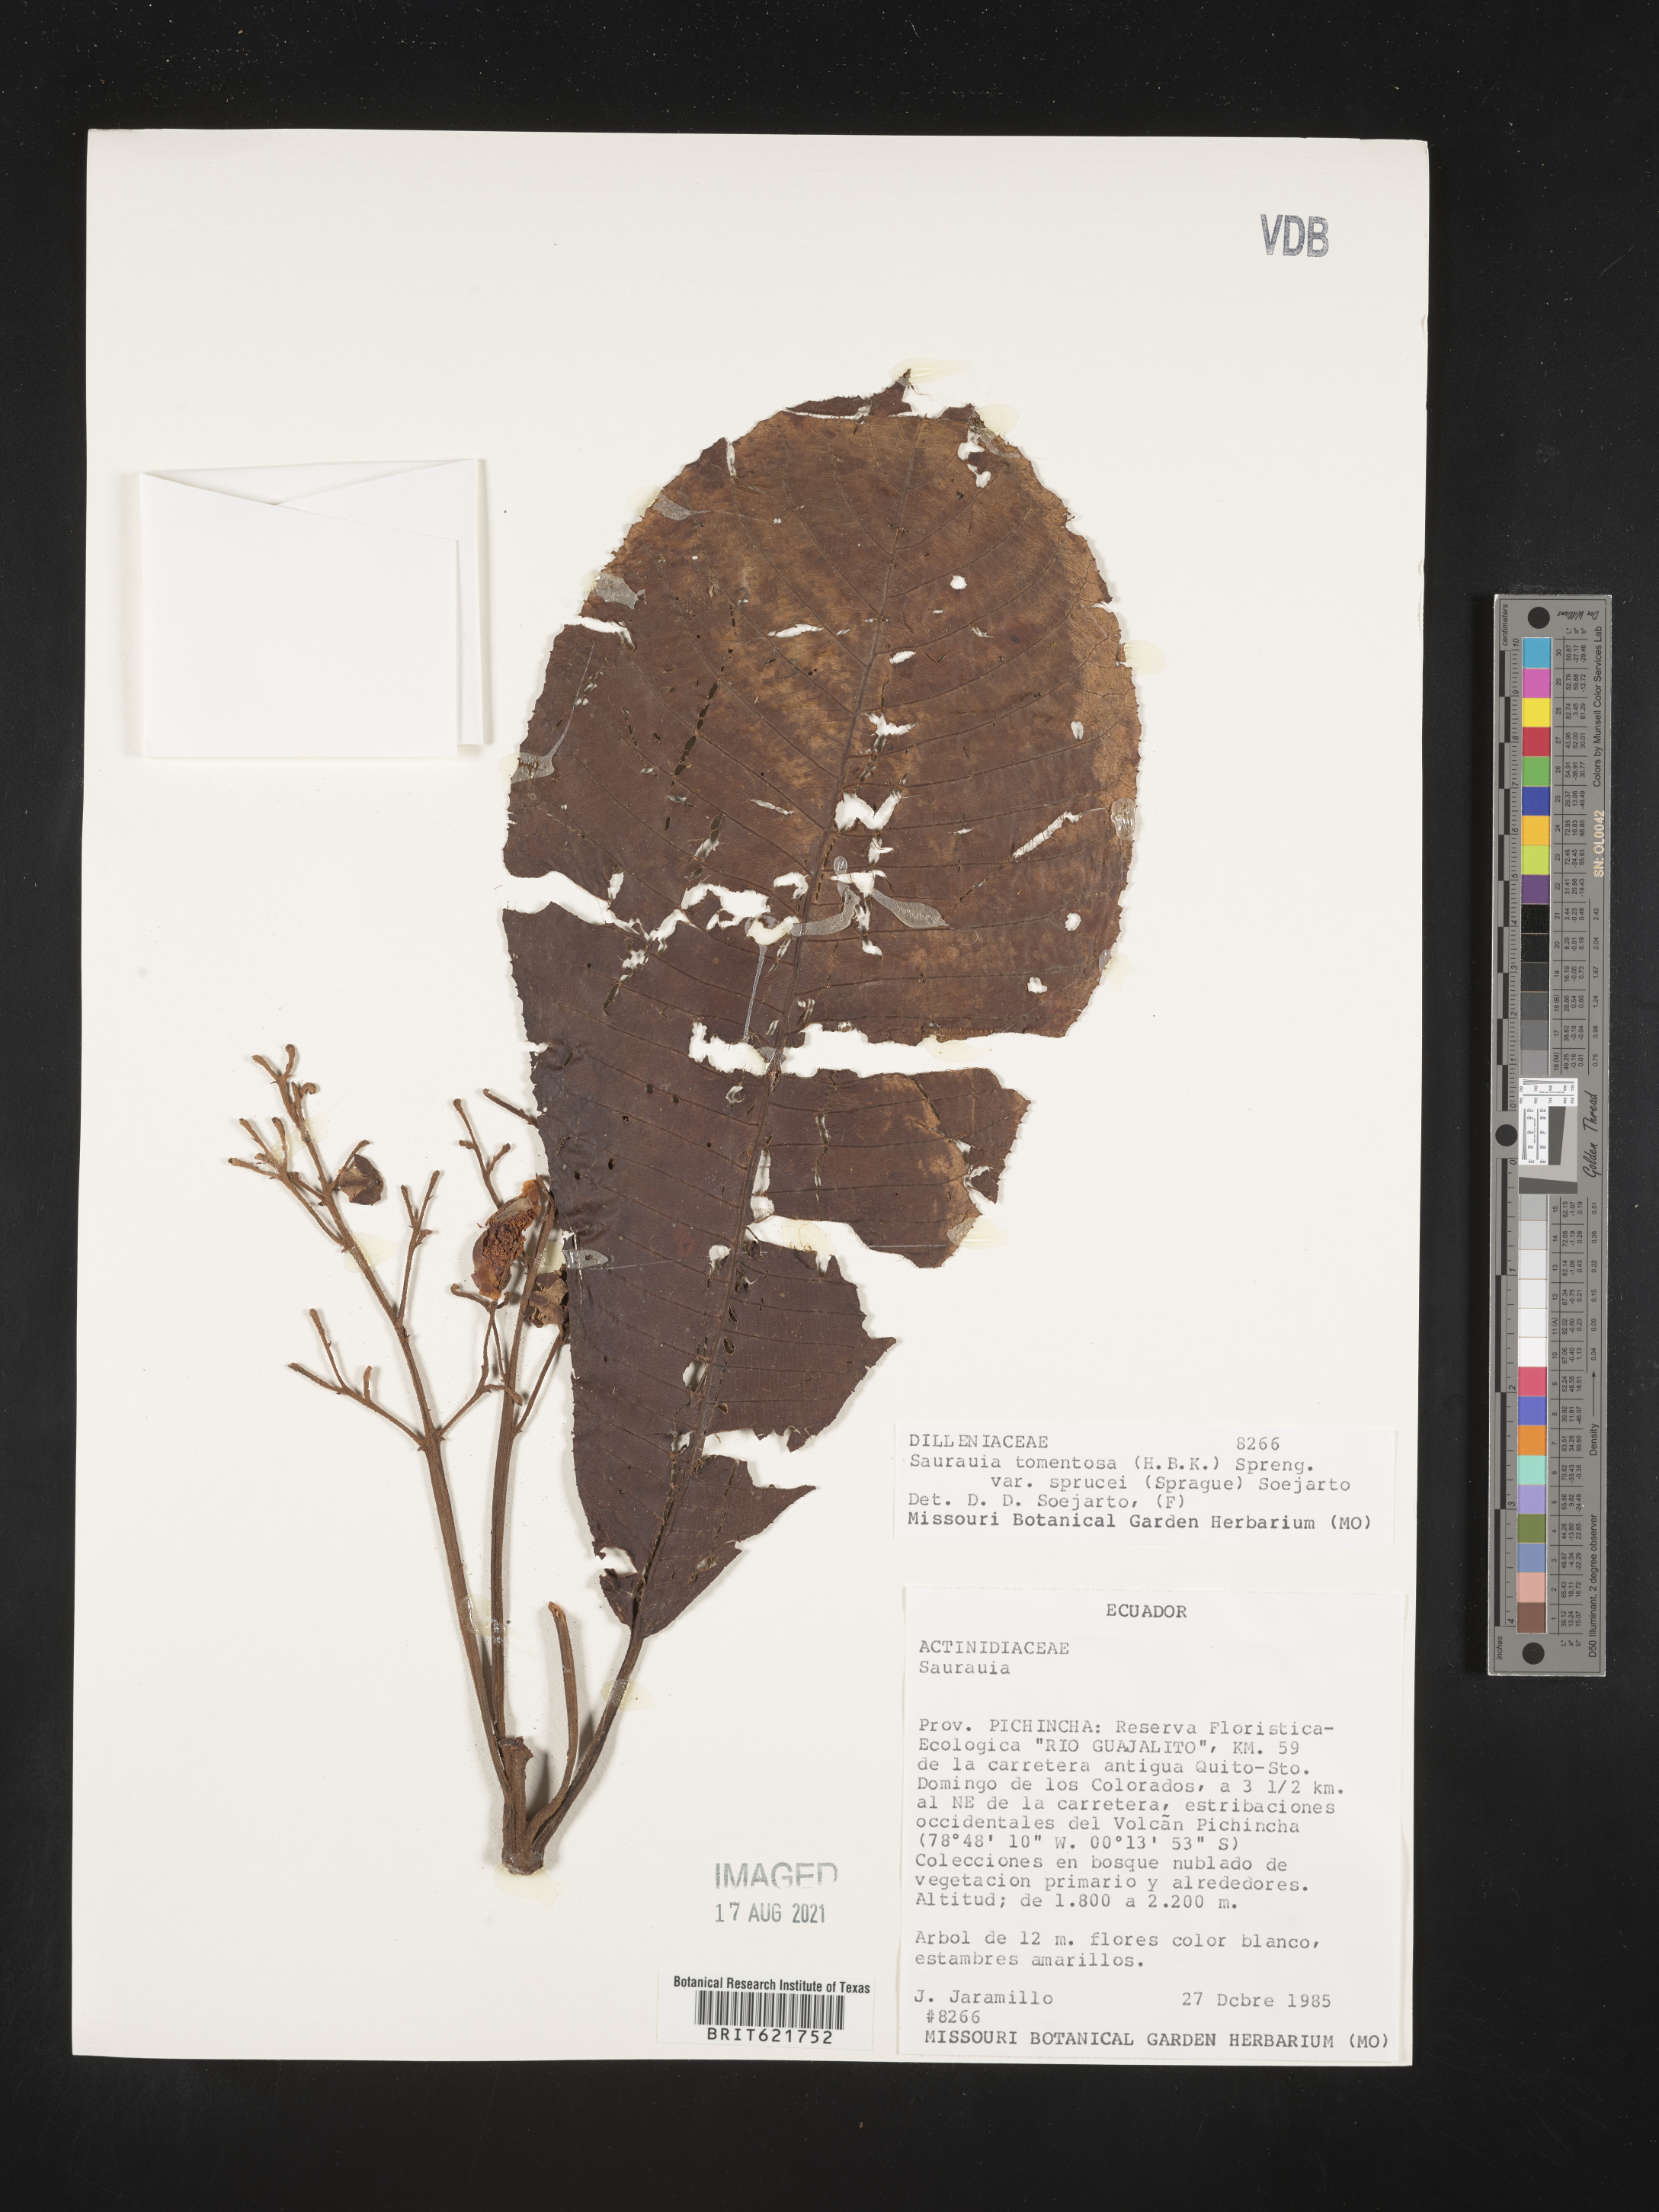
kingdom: Plantae
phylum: Tracheophyta
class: Magnoliopsida
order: Ericales
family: Actinidiaceae
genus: Saurauia
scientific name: Saurauia tomentosa
